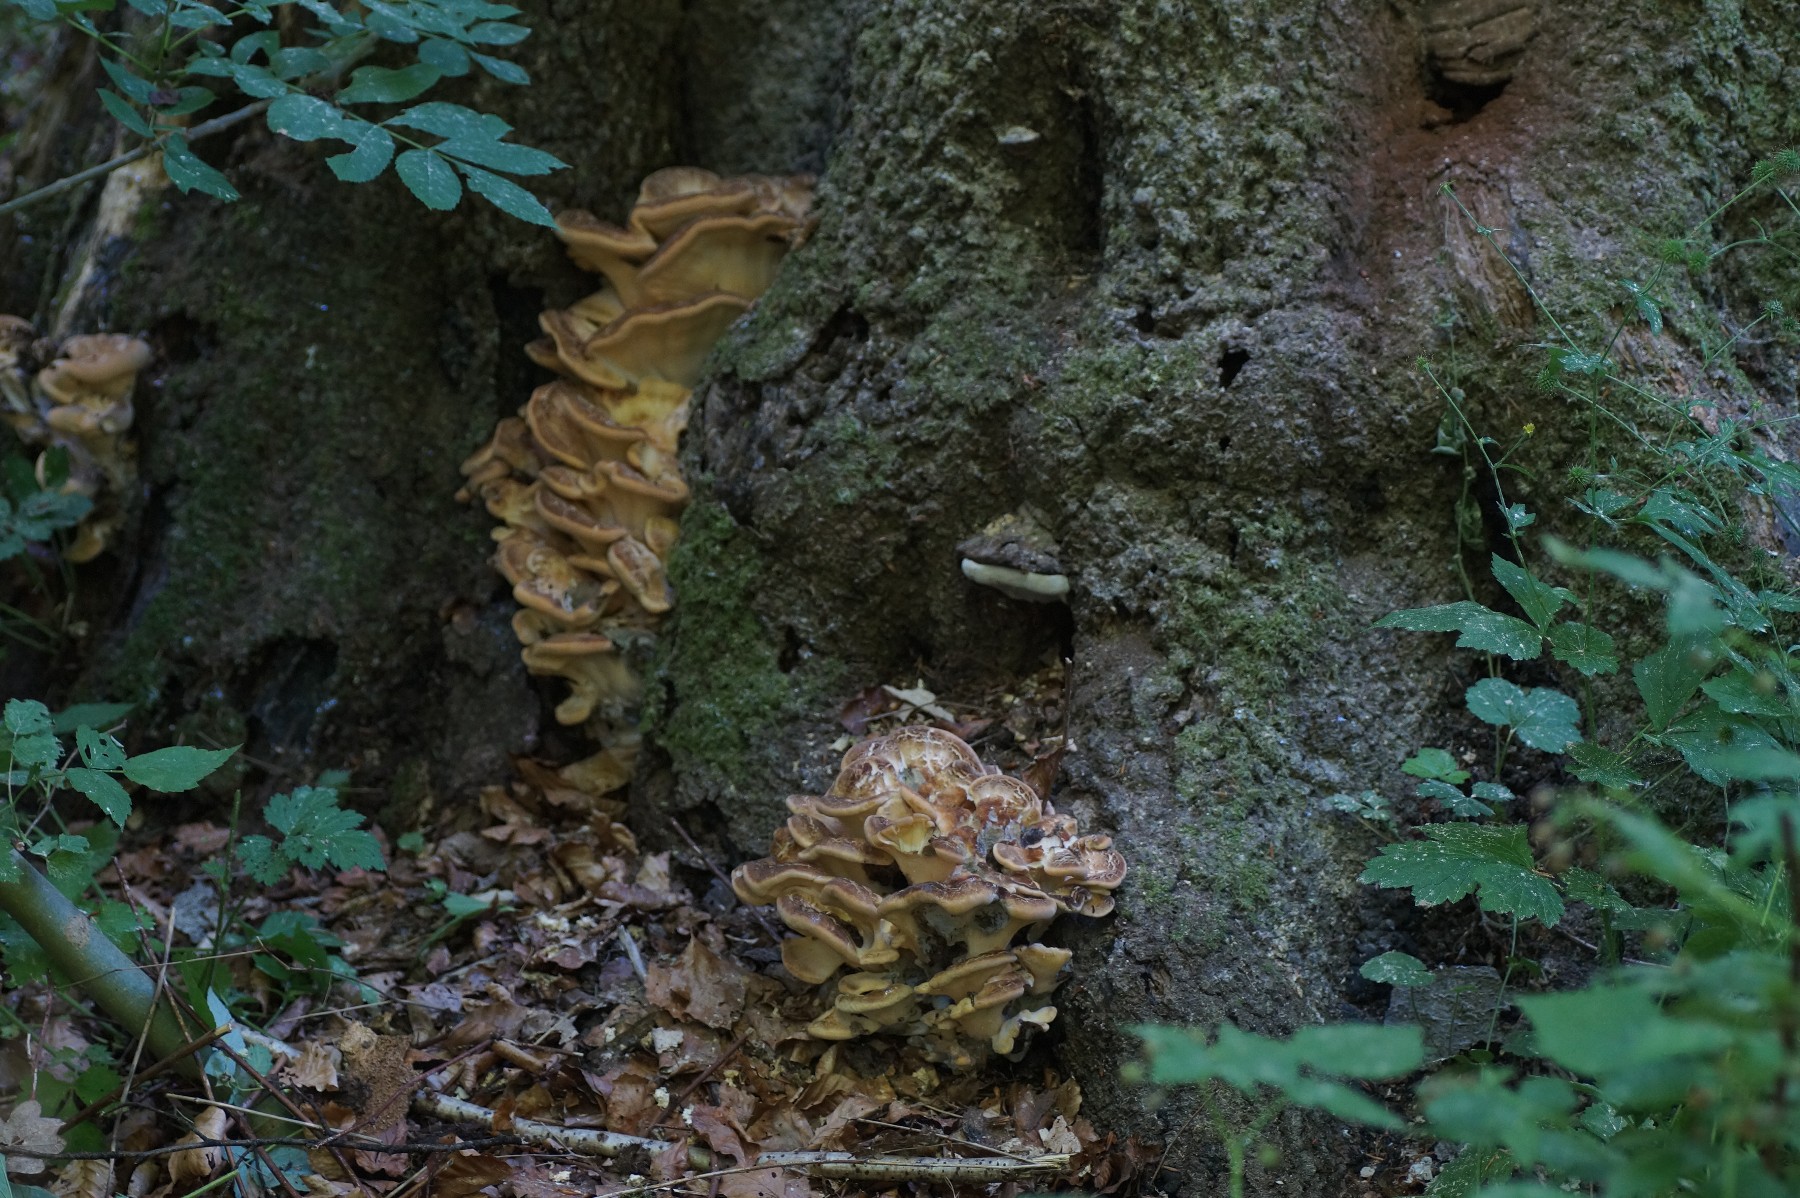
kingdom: Fungi
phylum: Basidiomycota
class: Agaricomycetes
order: Polyporales
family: Meripilaceae
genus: Meripilus
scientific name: Meripilus giganteus
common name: kæmpeporesvamp
